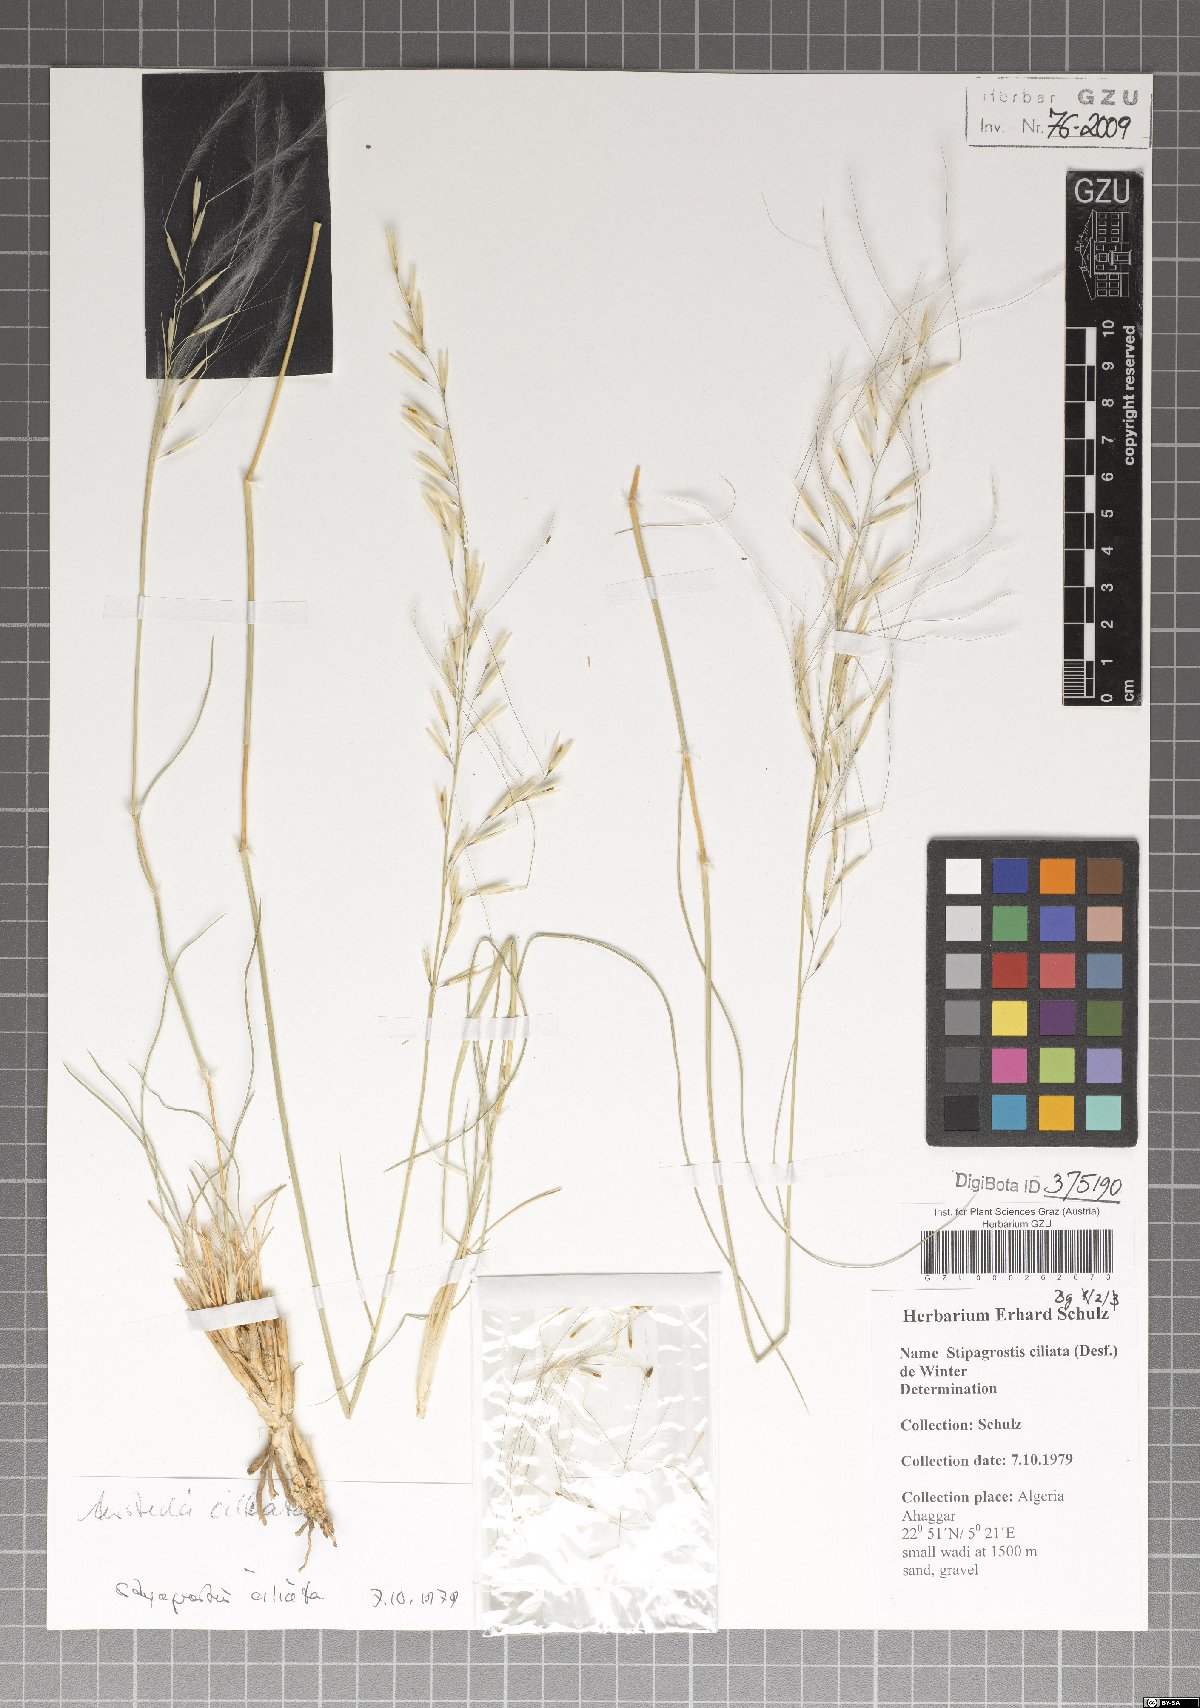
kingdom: Plantae
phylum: Tracheophyta
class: Liliopsida
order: Poales
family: Poaceae
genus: Stipagrostis
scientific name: Stipagrostis ciliata
